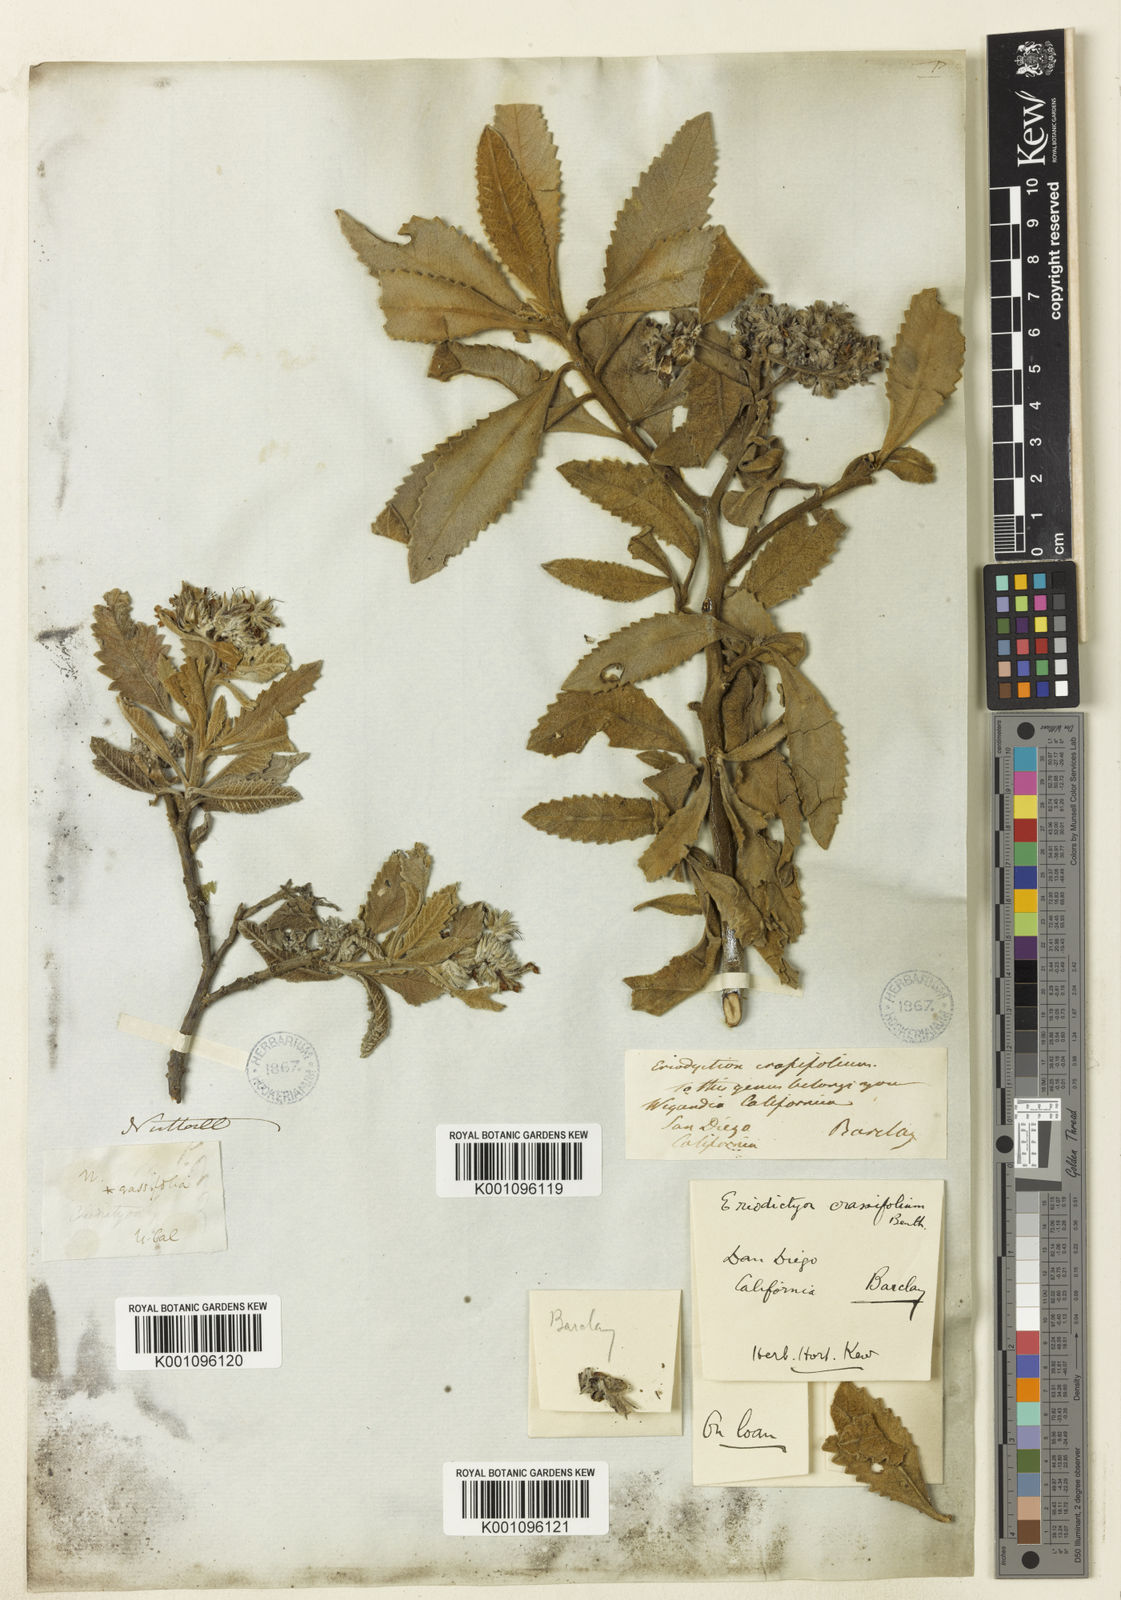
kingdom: Plantae
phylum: Tracheophyta
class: Magnoliopsida
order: Boraginales
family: Namaceae
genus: Eriodictyon
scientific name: Eriodictyon crassifolium
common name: Thick-leaf yerba-santa
